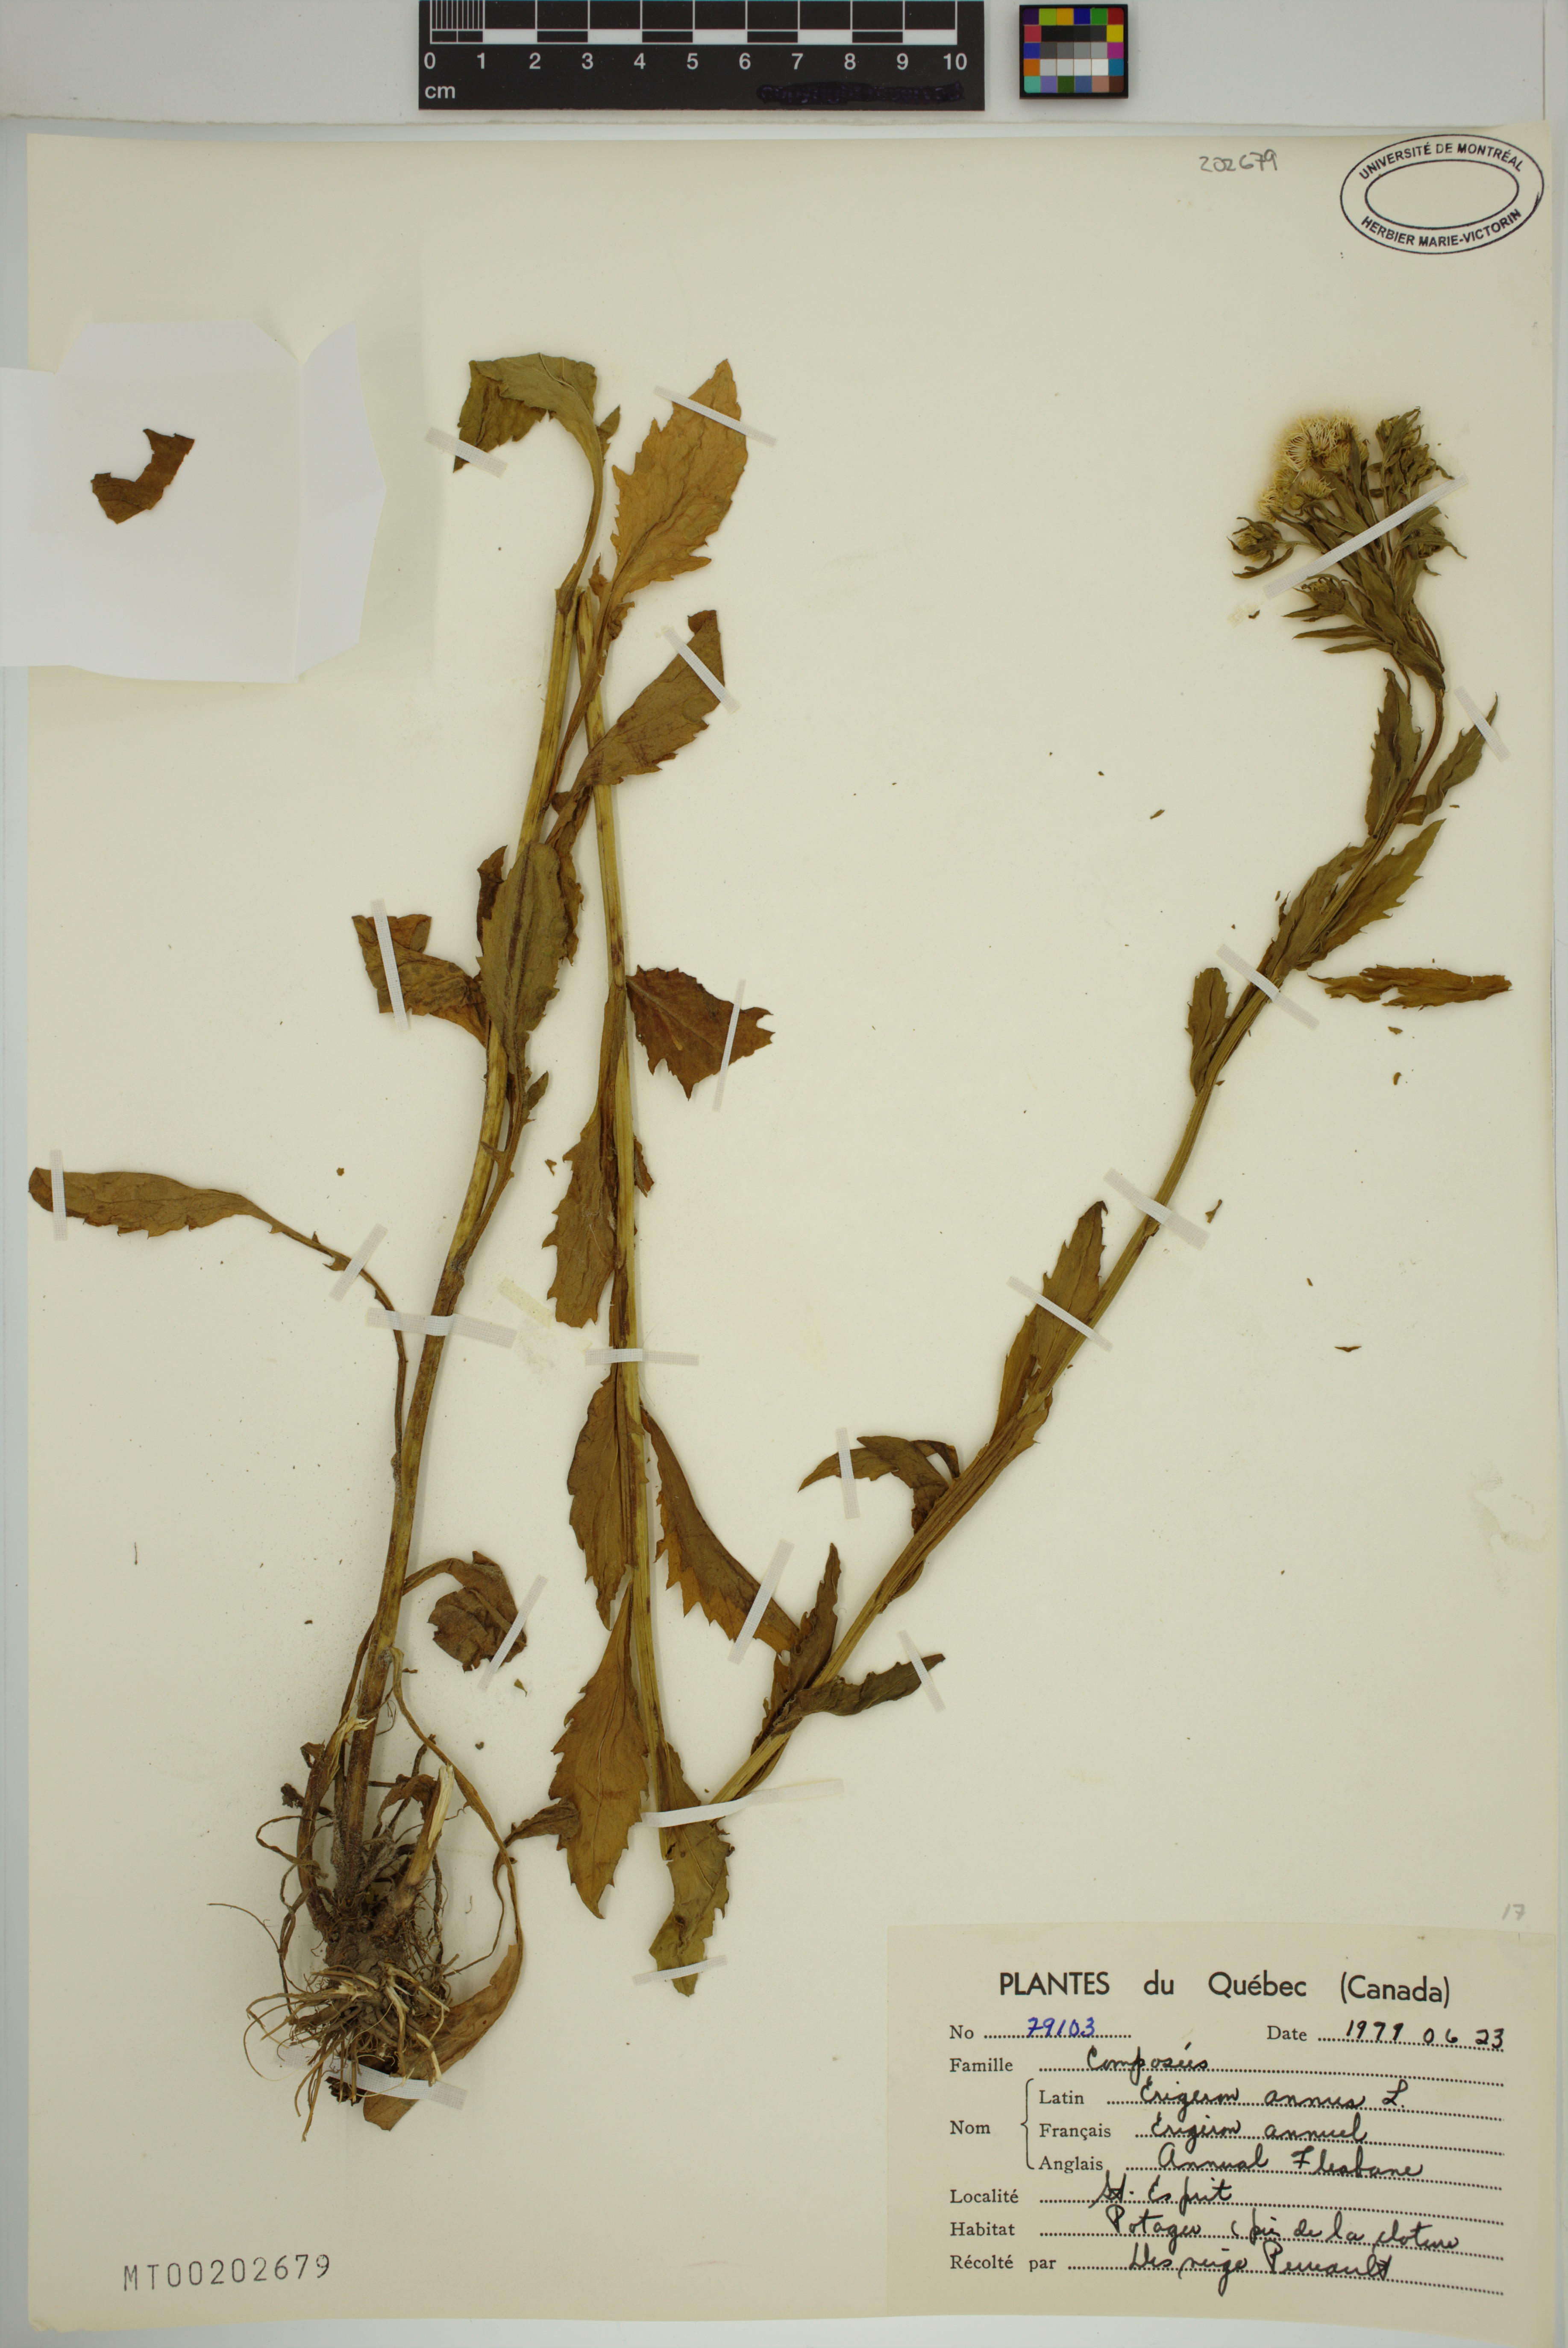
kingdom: Plantae
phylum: Tracheophyta
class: Magnoliopsida
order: Asterales
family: Asteraceae
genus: Erigeron
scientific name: Erigeron annuus
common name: Tall fleabane
